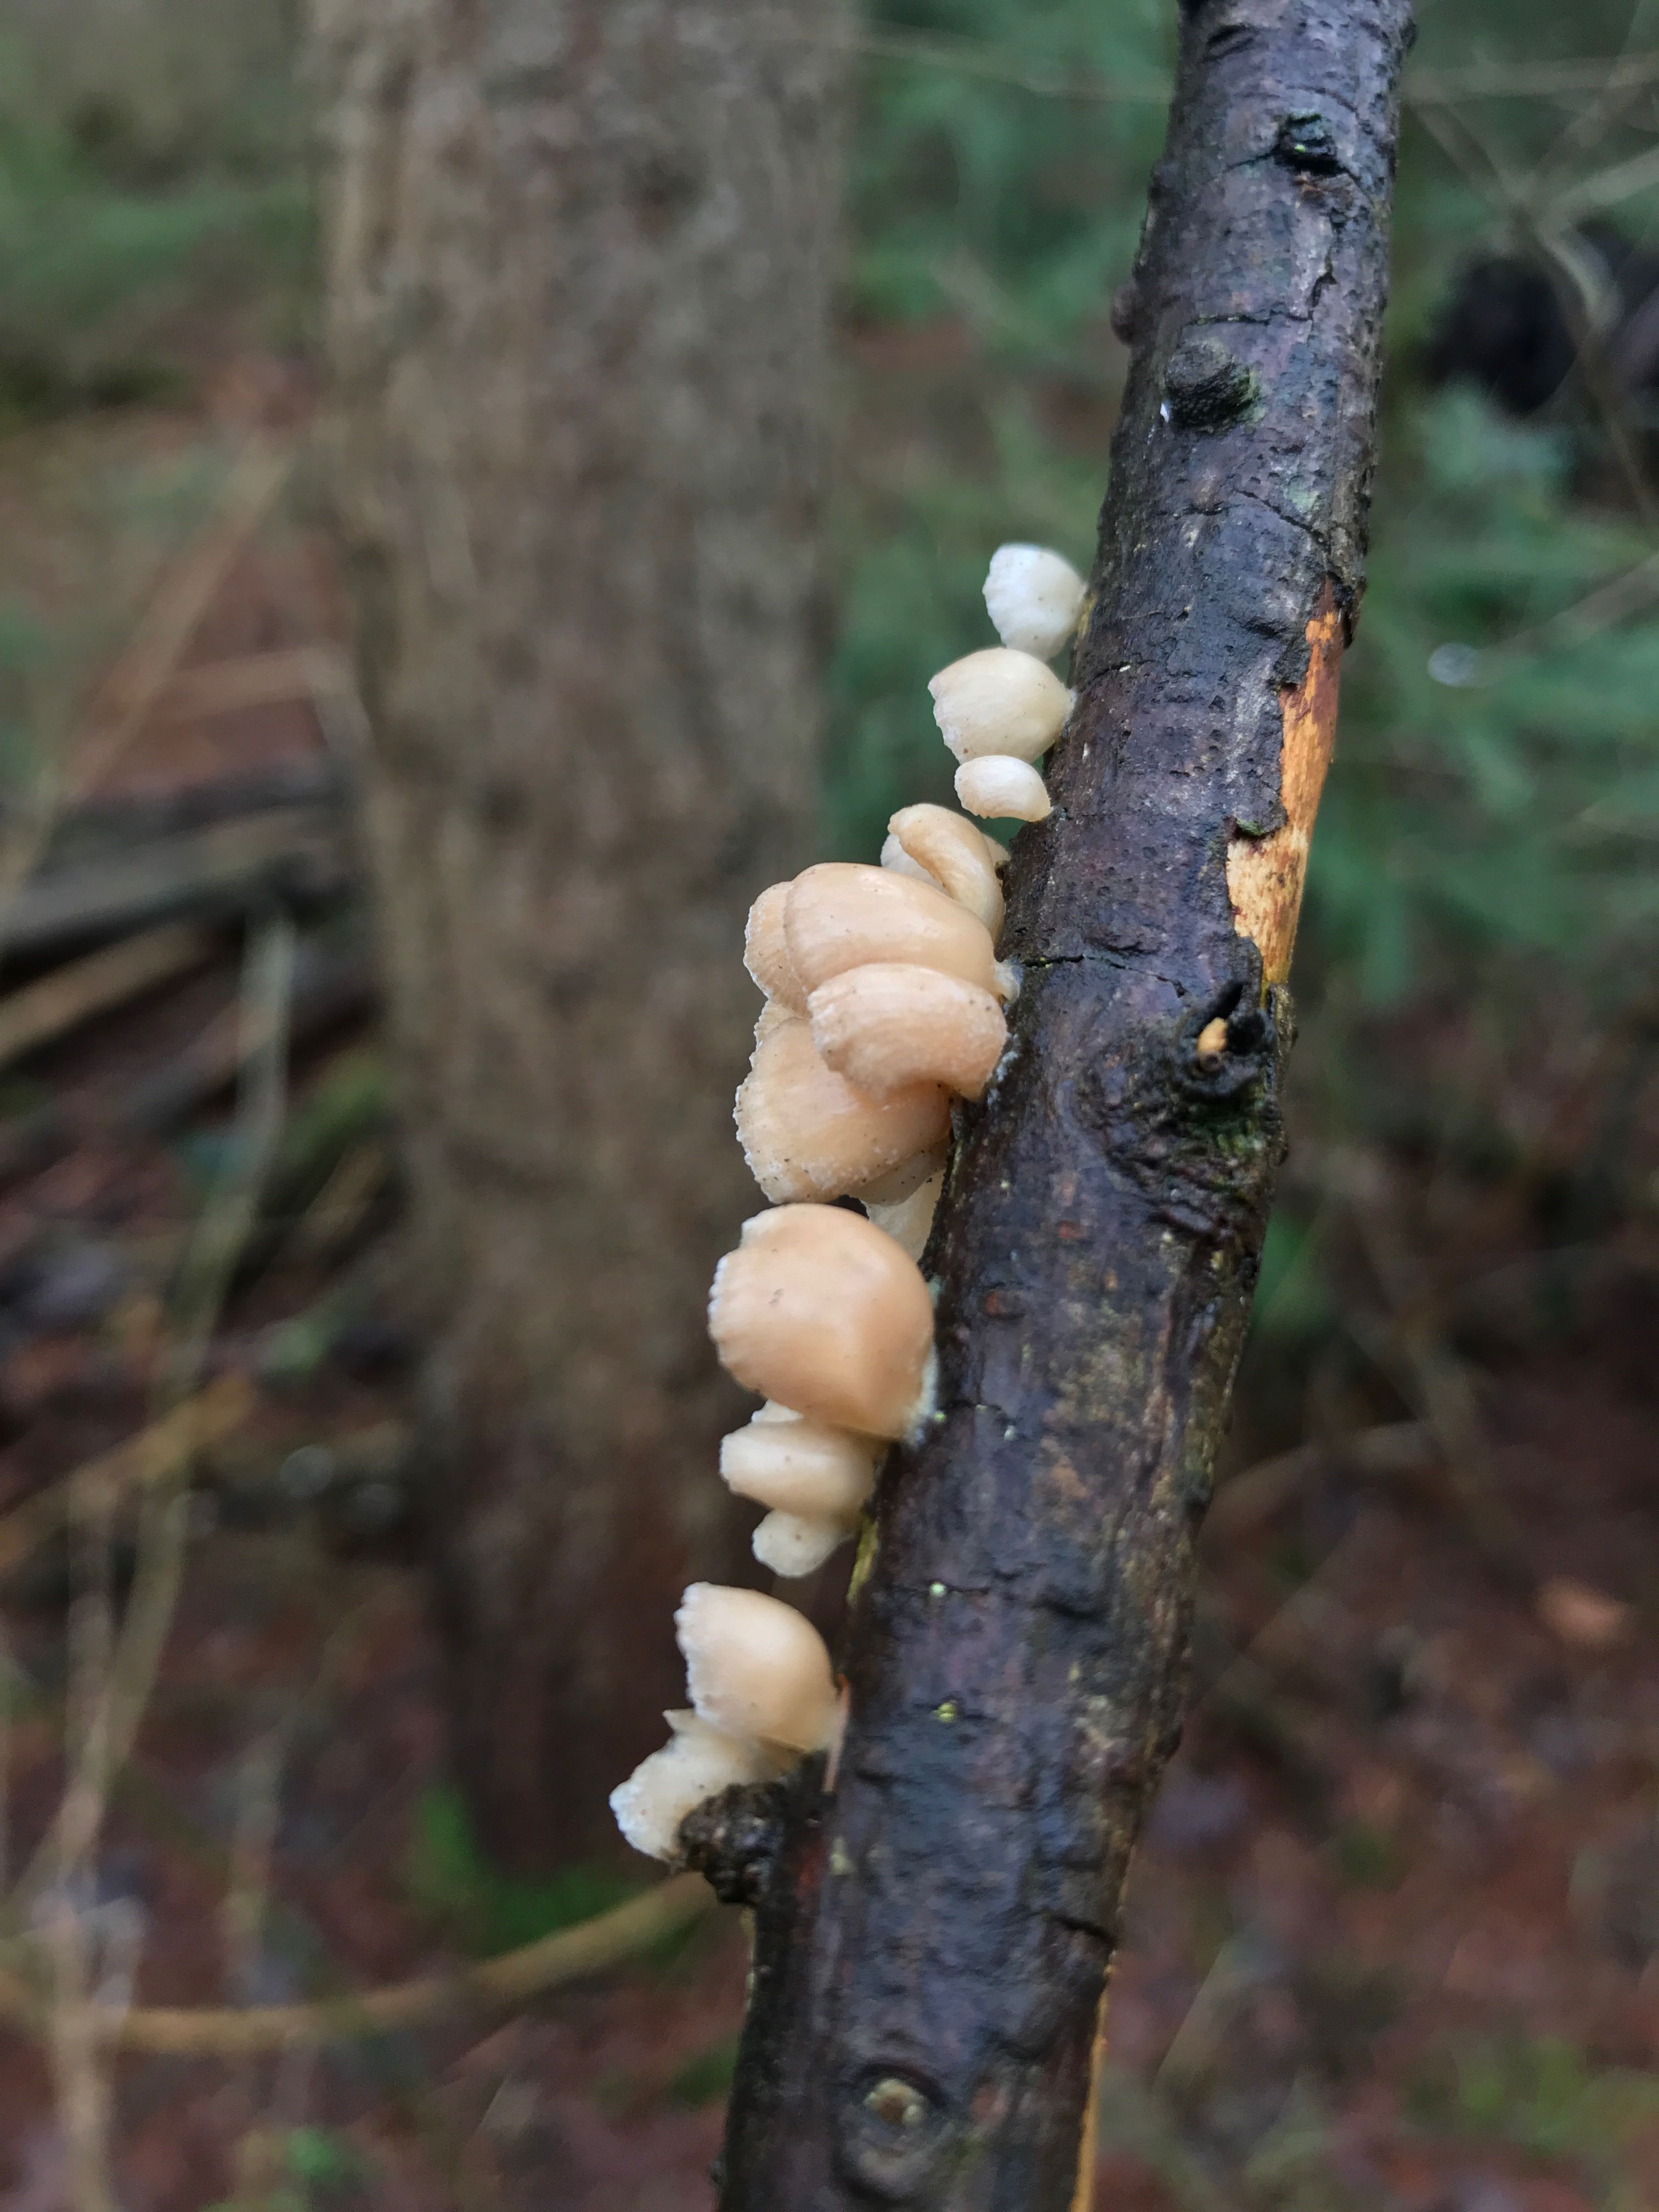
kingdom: Fungi
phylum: Basidiomycota
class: Agaricomycetes
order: Agaricales
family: Mycenaceae
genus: Panellus
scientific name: Panellus mitis
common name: mild epaulethat
